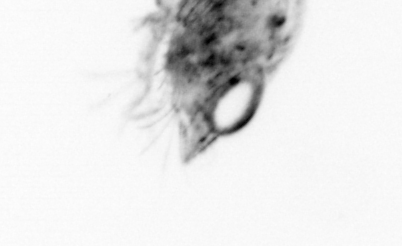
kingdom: Animalia
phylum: Arthropoda
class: Malacostraca
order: Decapoda
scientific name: Decapoda
